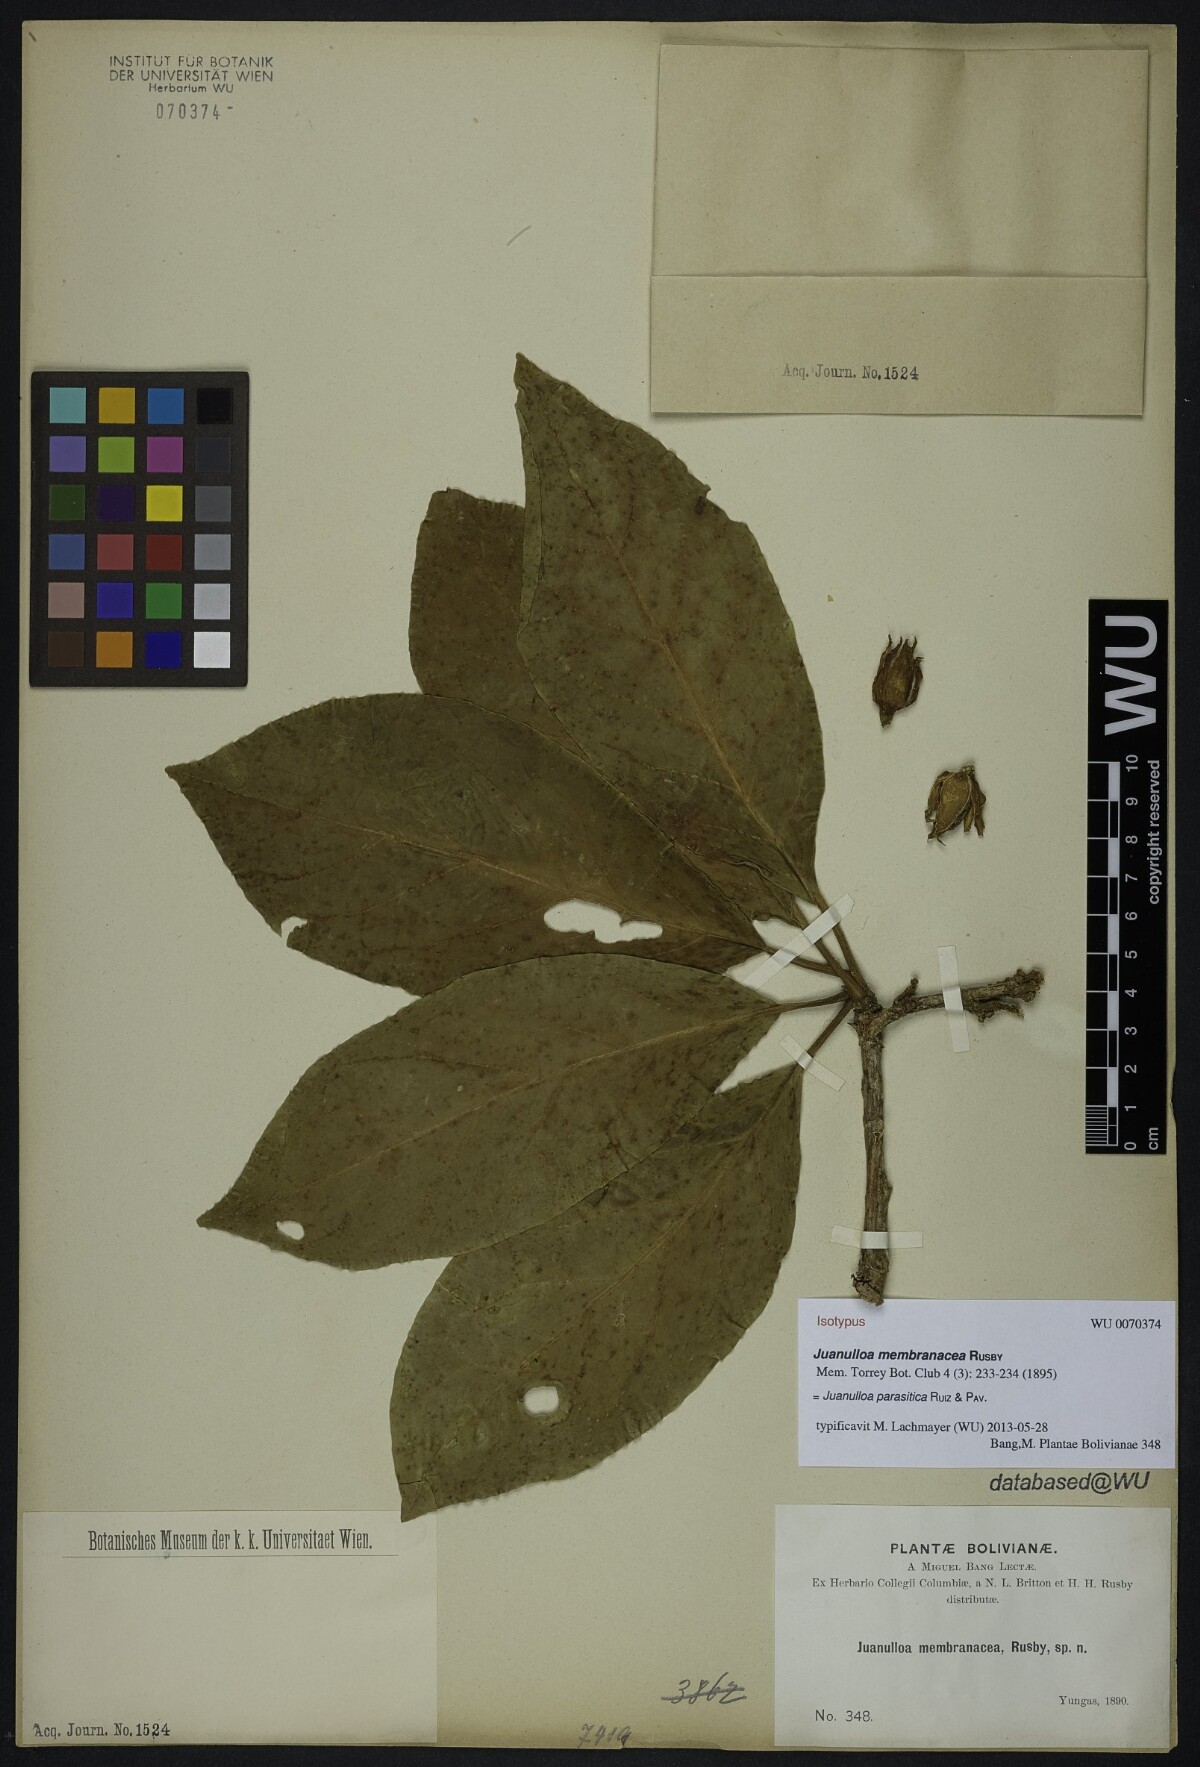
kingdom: Plantae
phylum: Tracheophyta
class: Magnoliopsida
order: Solanales
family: Solanaceae
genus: Juanulloa
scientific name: Juanulloa parasitica
